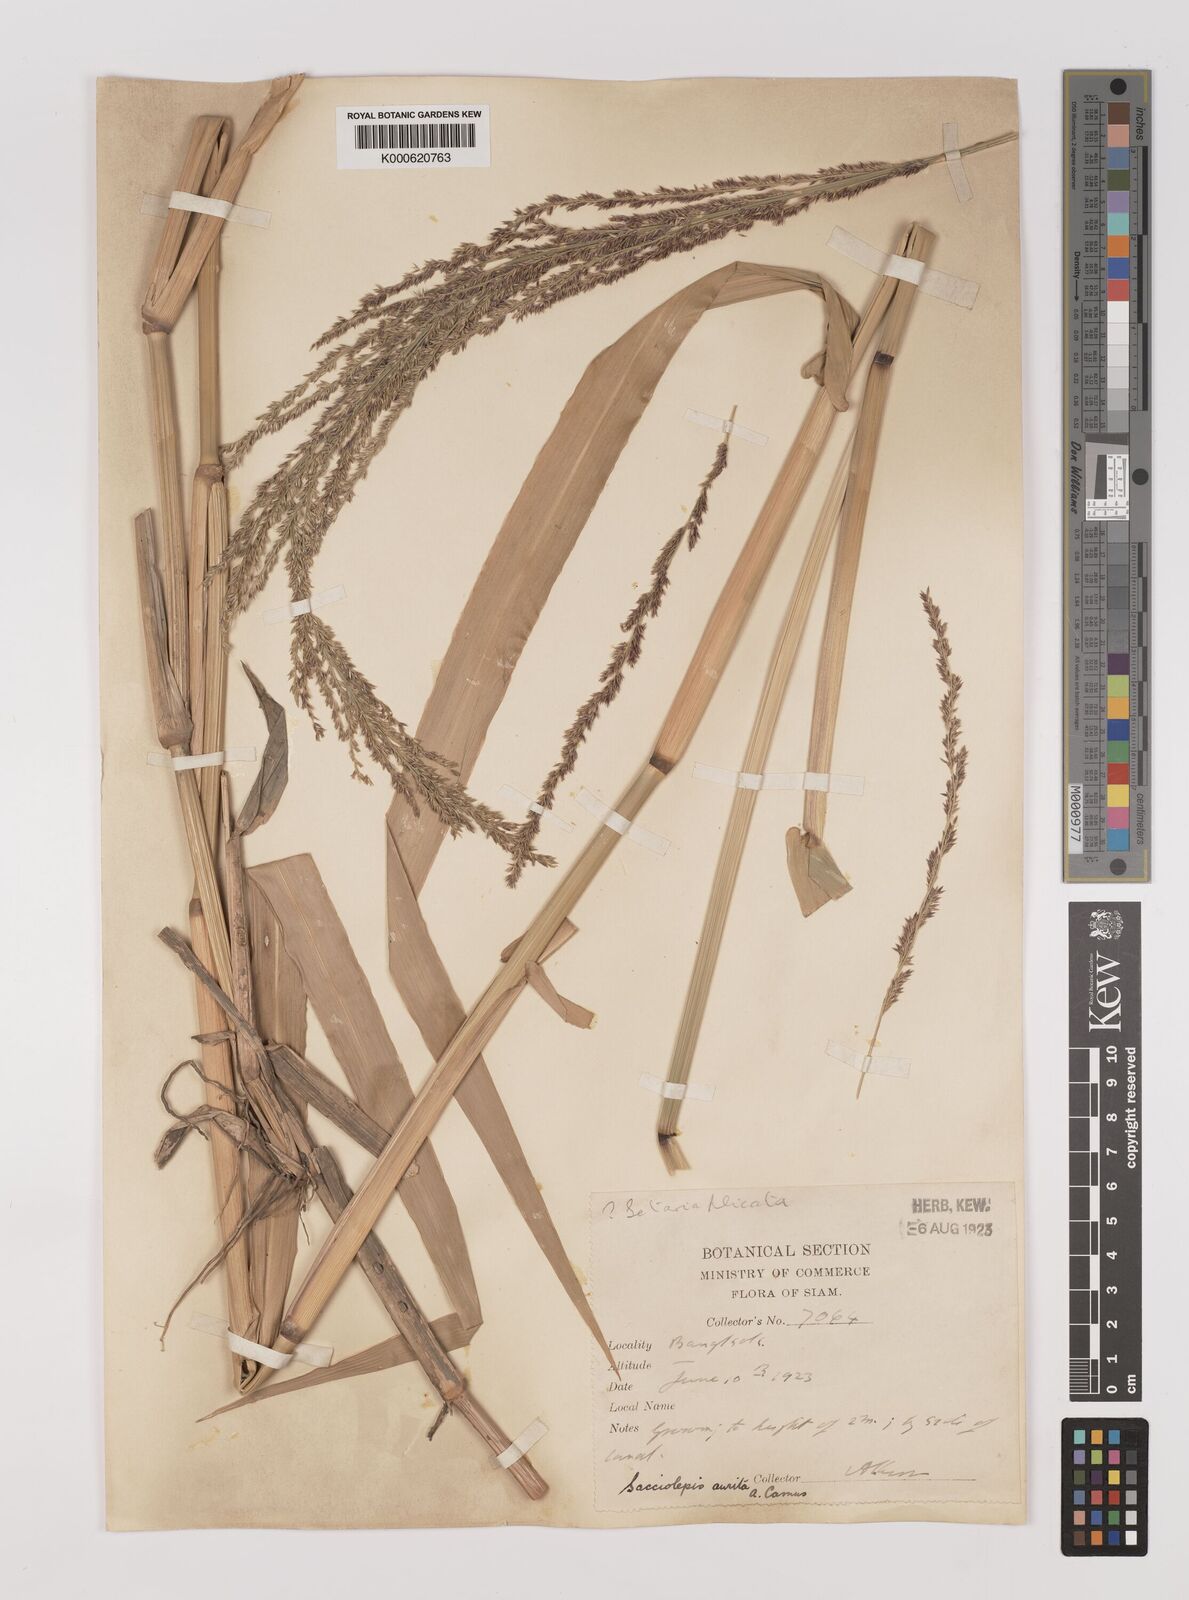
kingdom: Plantae
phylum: Tracheophyta
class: Liliopsida
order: Poales
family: Poaceae
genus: Hymenachne
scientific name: Hymenachne aurita
